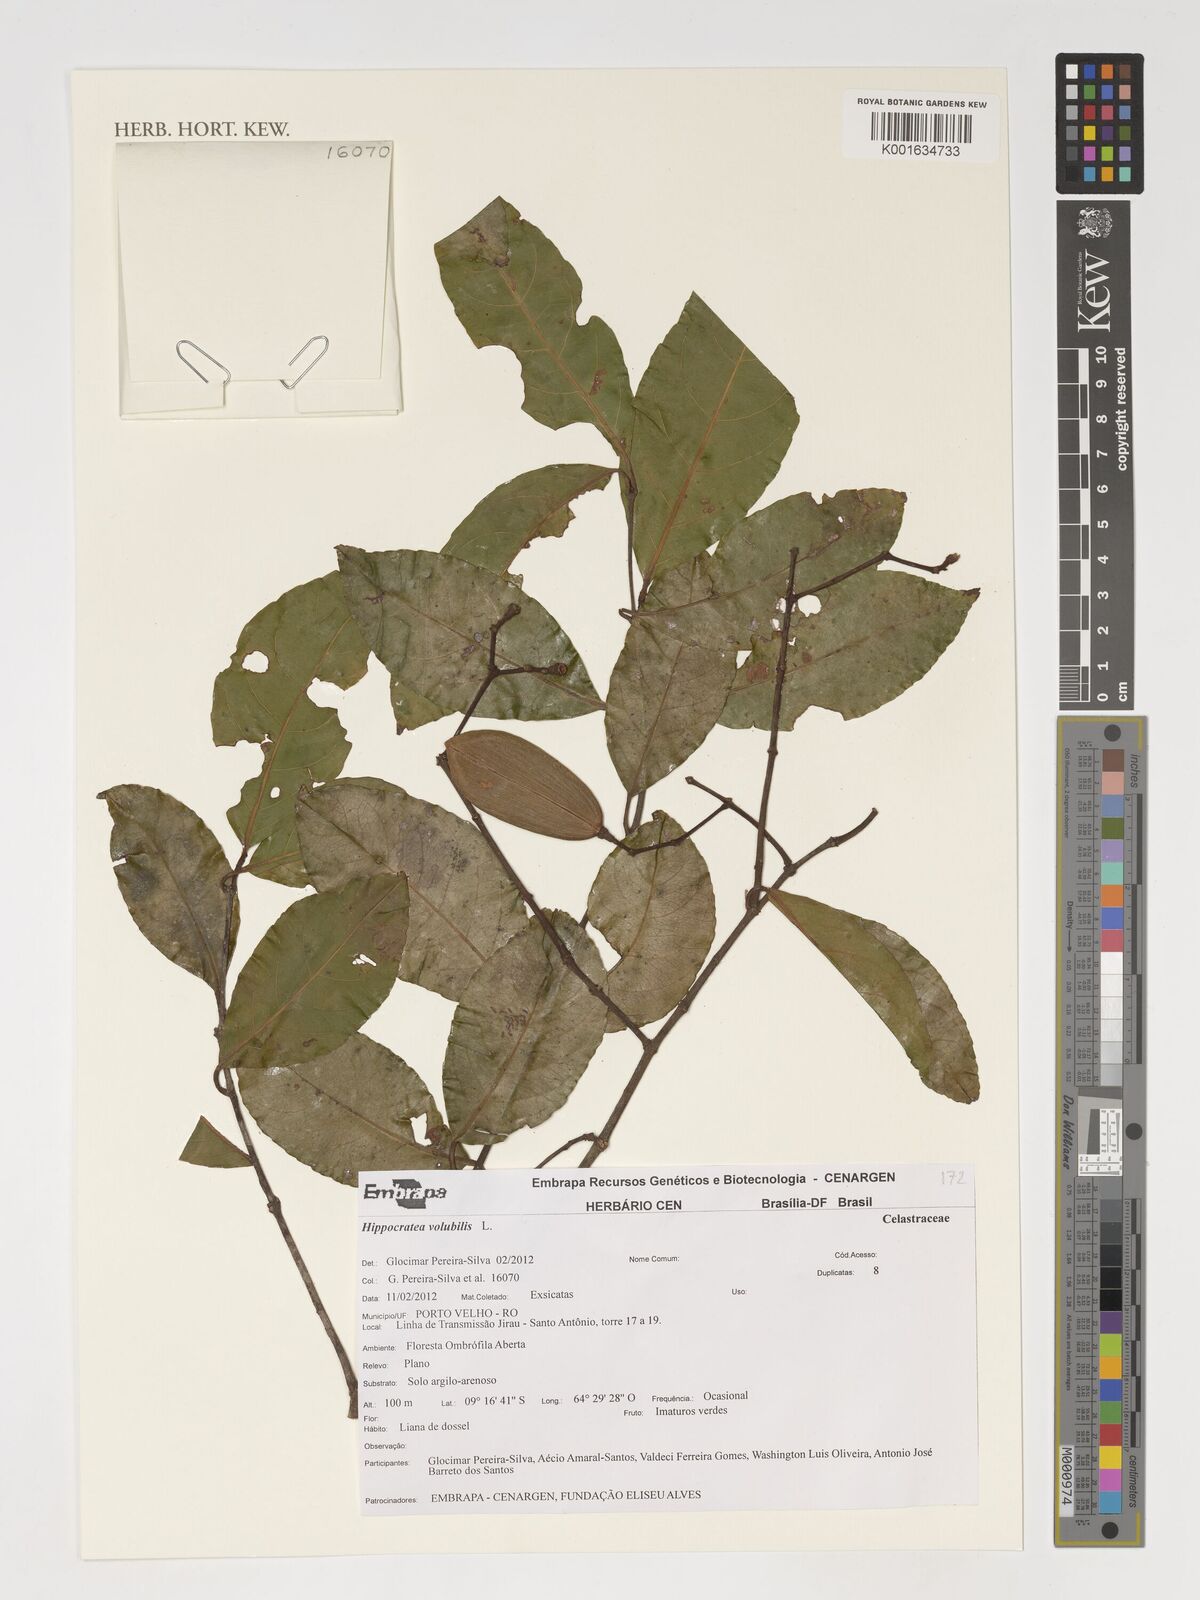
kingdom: Plantae
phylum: Tracheophyta
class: Magnoliopsida
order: Celastrales
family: Celastraceae
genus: Hippocratea
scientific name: Hippocratea volubilis
